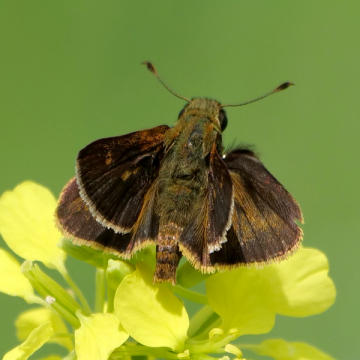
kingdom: Animalia
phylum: Arthropoda
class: Insecta
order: Lepidoptera
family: Hesperiidae
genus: Polites
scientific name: Polites egeremet
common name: Northern Broken-Dash
